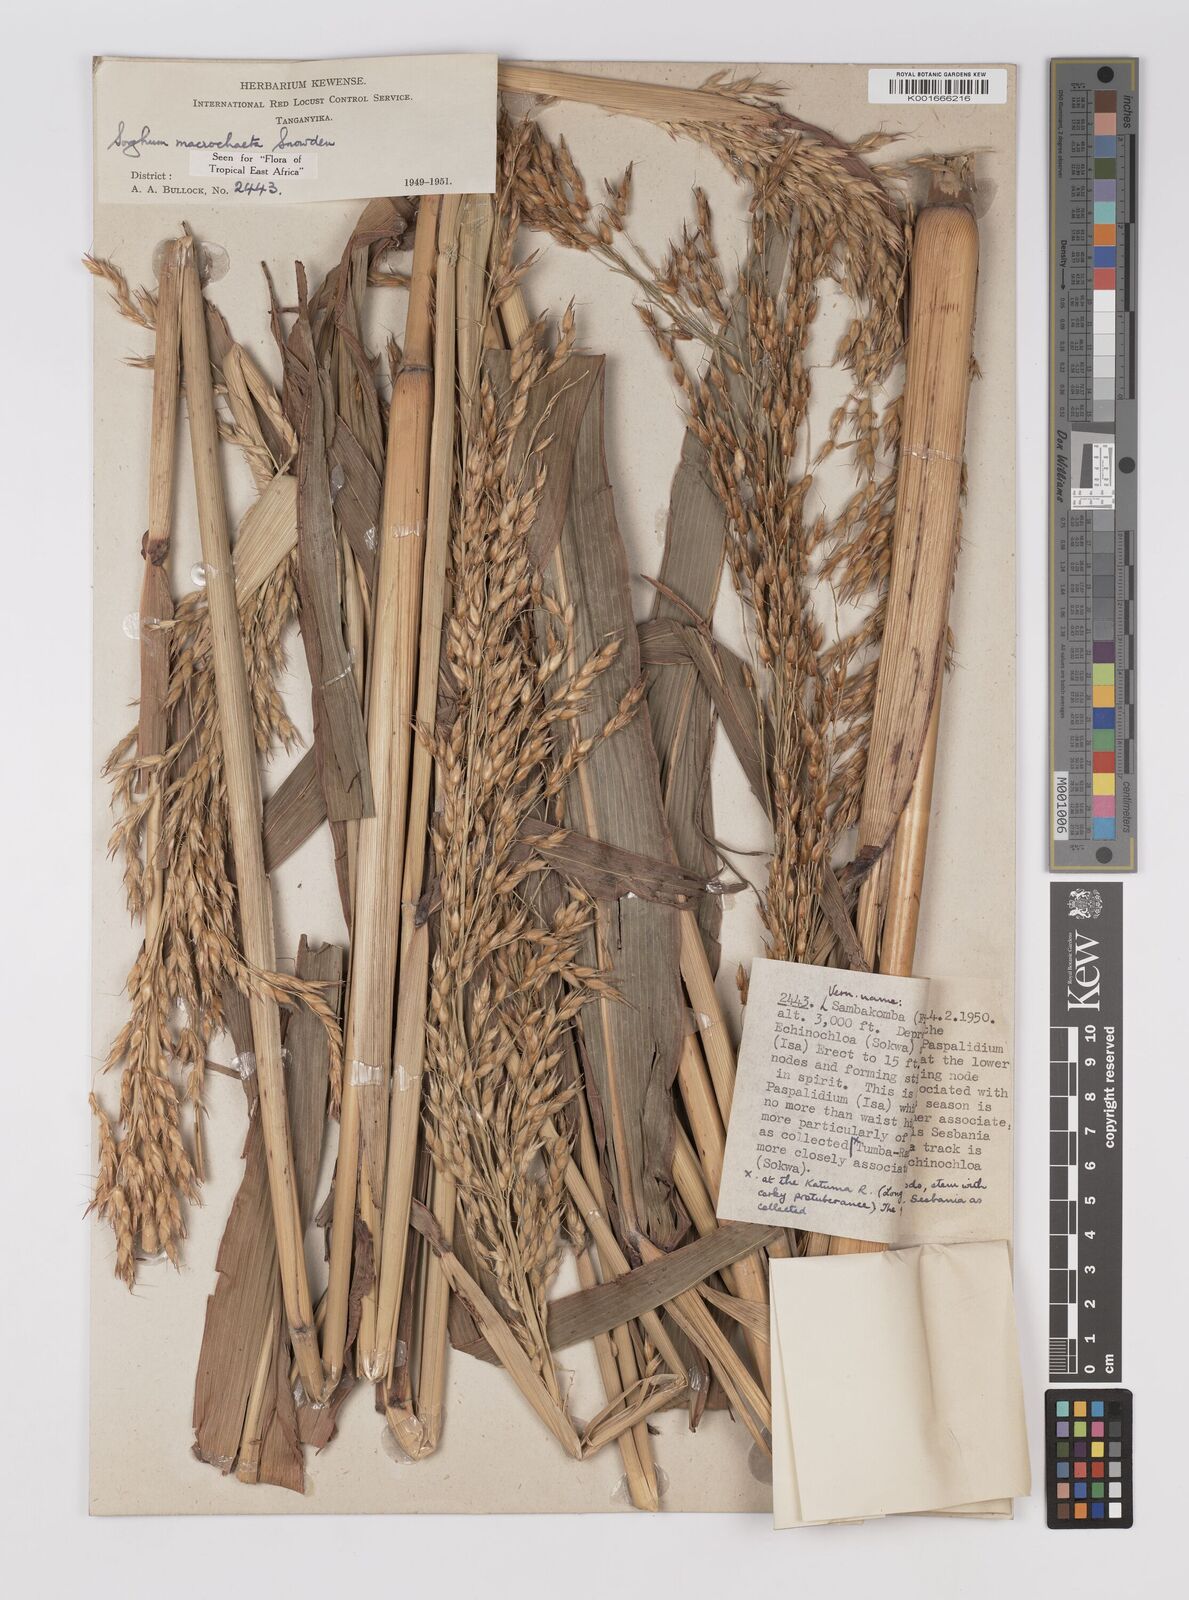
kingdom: Plantae
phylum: Tracheophyta
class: Liliopsida
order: Poales
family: Poaceae
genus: Sorghum
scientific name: Sorghum arundinaceum
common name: Sorghum
